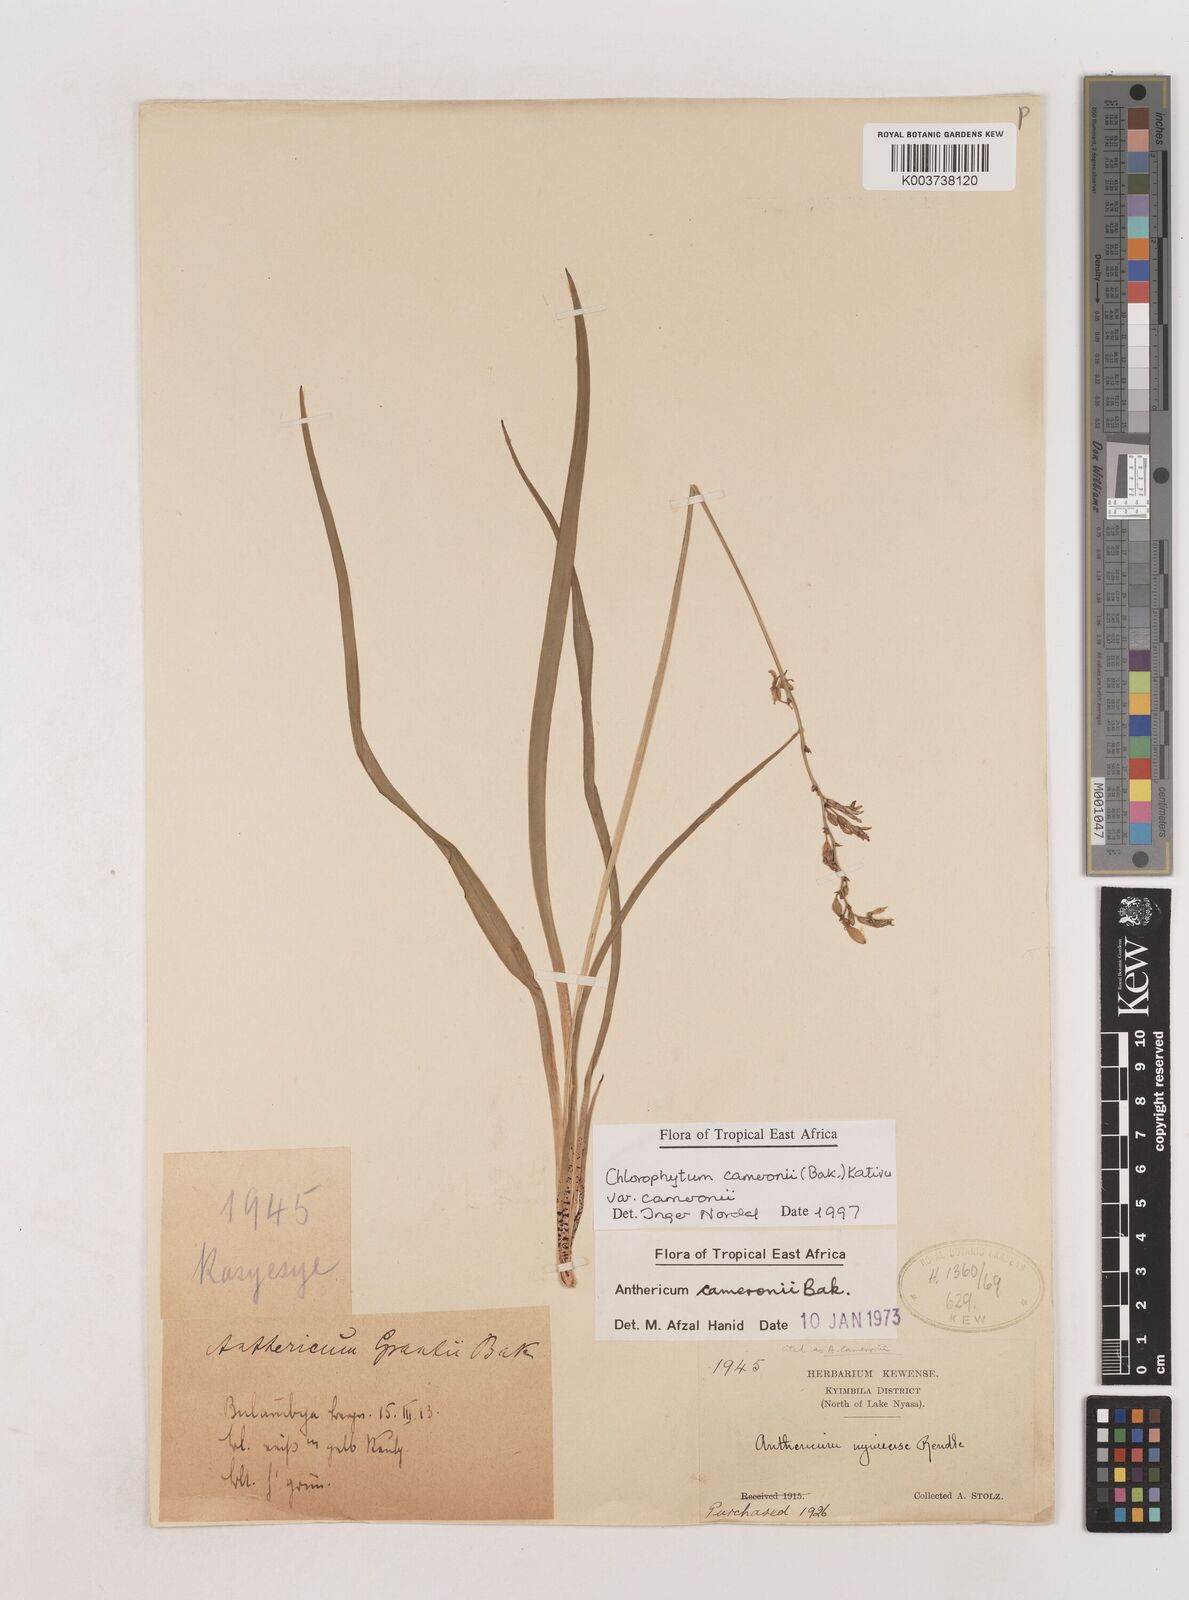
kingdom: Plantae
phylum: Tracheophyta
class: Liliopsida
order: Asparagales
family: Asparagaceae
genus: Chlorophytum
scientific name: Chlorophytum cameronii
